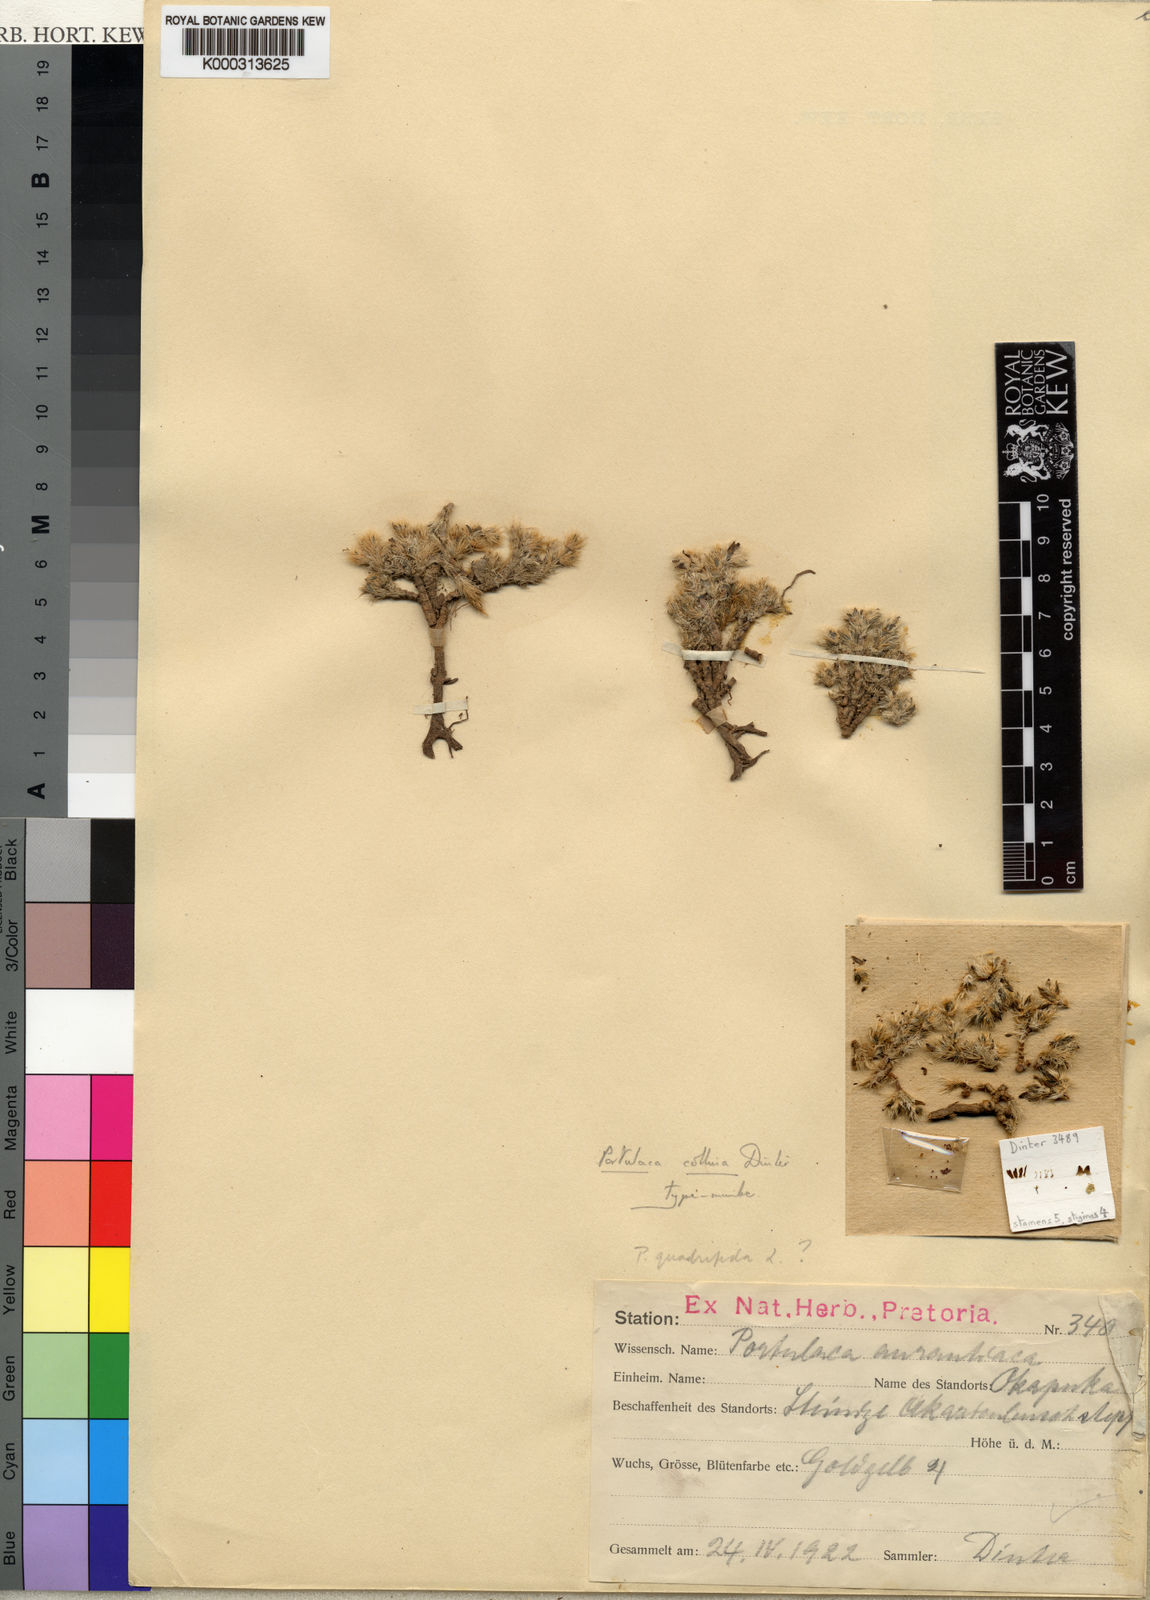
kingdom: Plantae
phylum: Tracheophyta
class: Magnoliopsida
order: Caryophyllales
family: Portulacaceae
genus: Portulaca
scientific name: Portulaca wightiana
